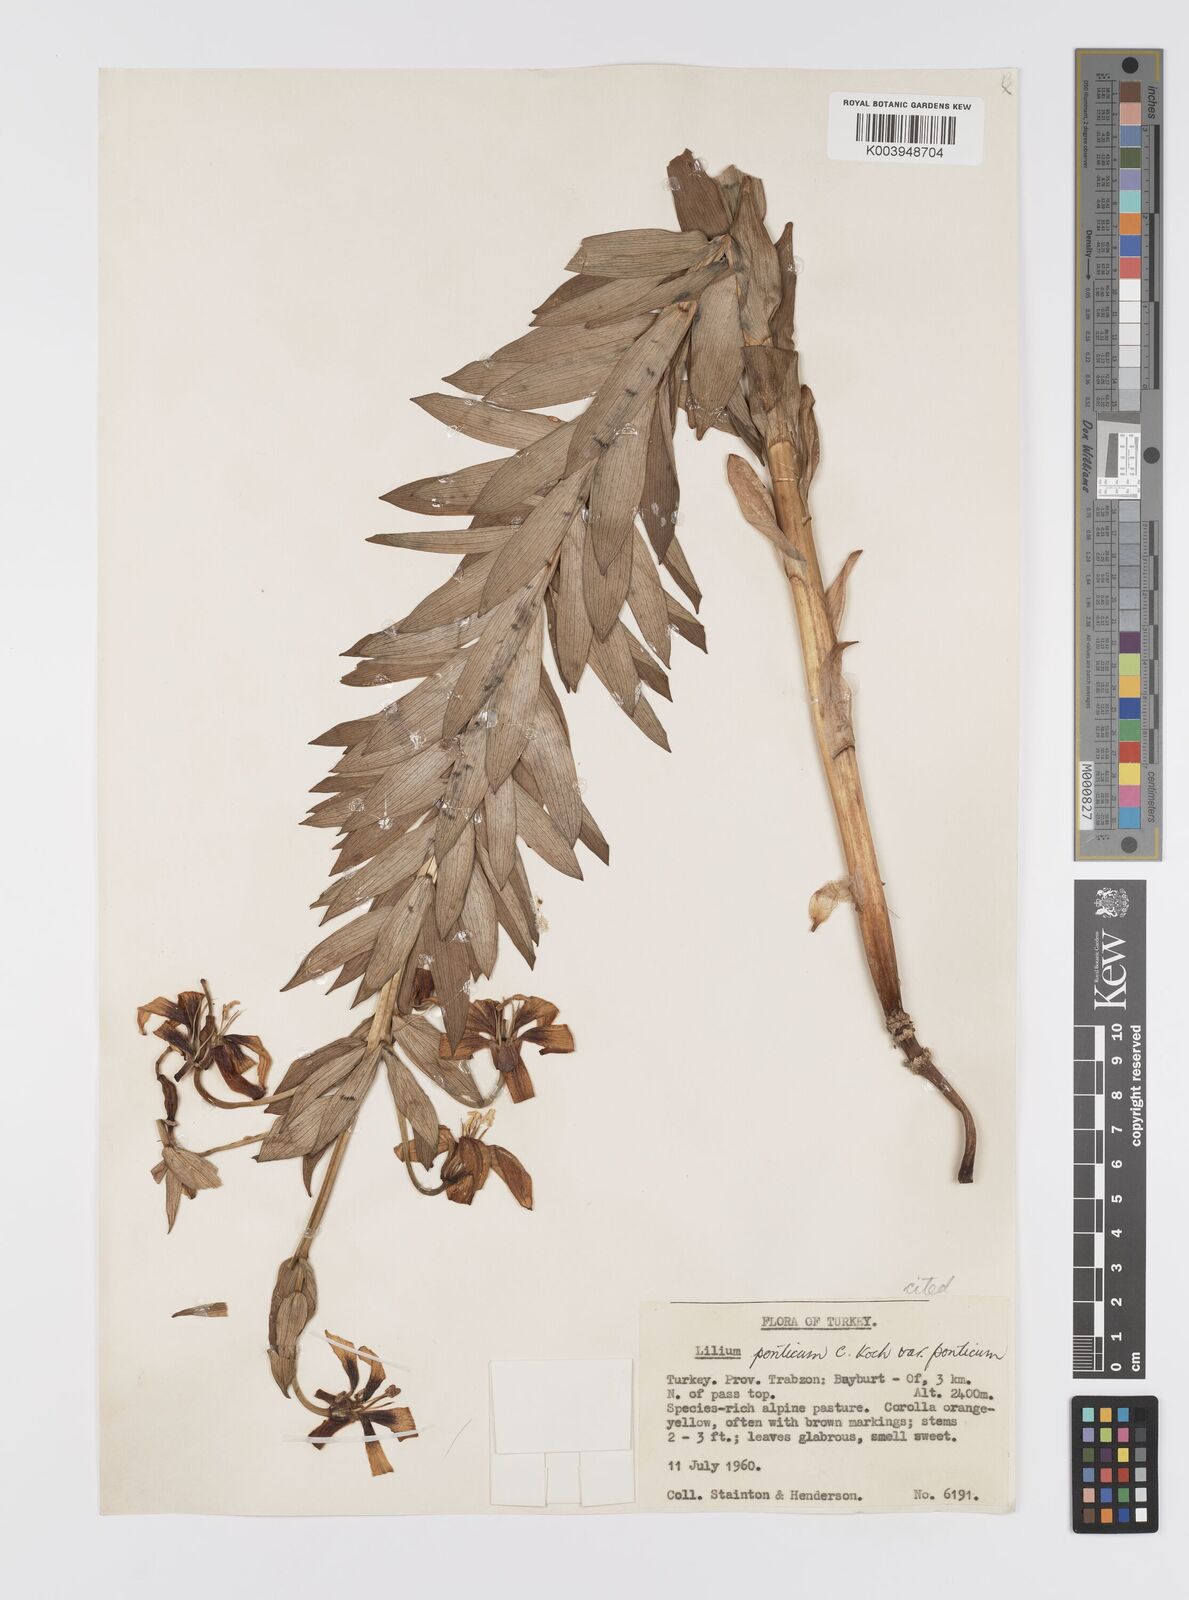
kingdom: Plantae
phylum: Tracheophyta
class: Liliopsida
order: Liliales
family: Liliaceae
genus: Lilium
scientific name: Lilium ponticum
